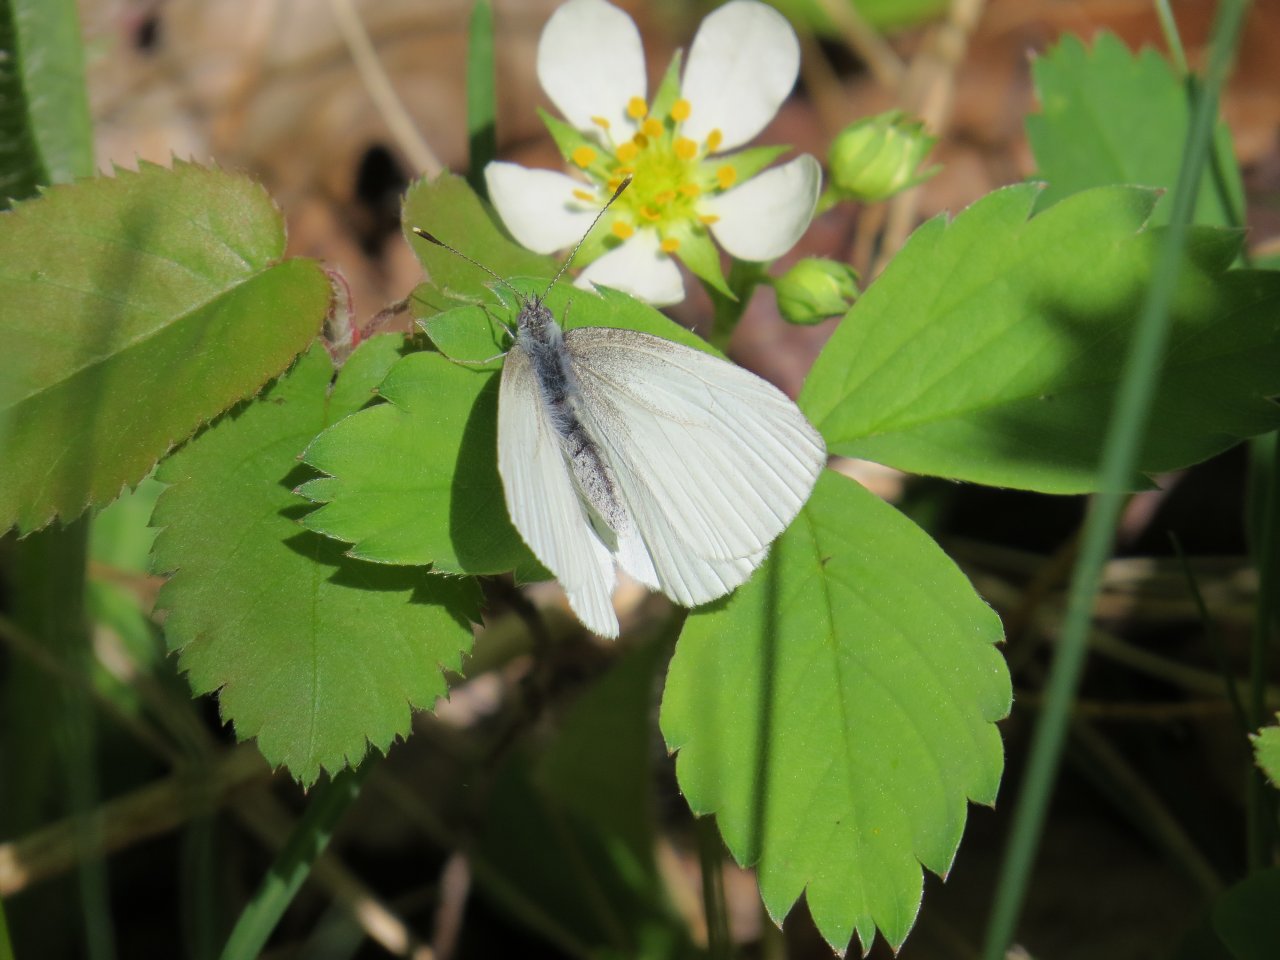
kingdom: Animalia
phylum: Arthropoda
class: Insecta
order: Lepidoptera
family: Pieridae
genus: Pieris
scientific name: Pieris oleracea
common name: Mustard White
